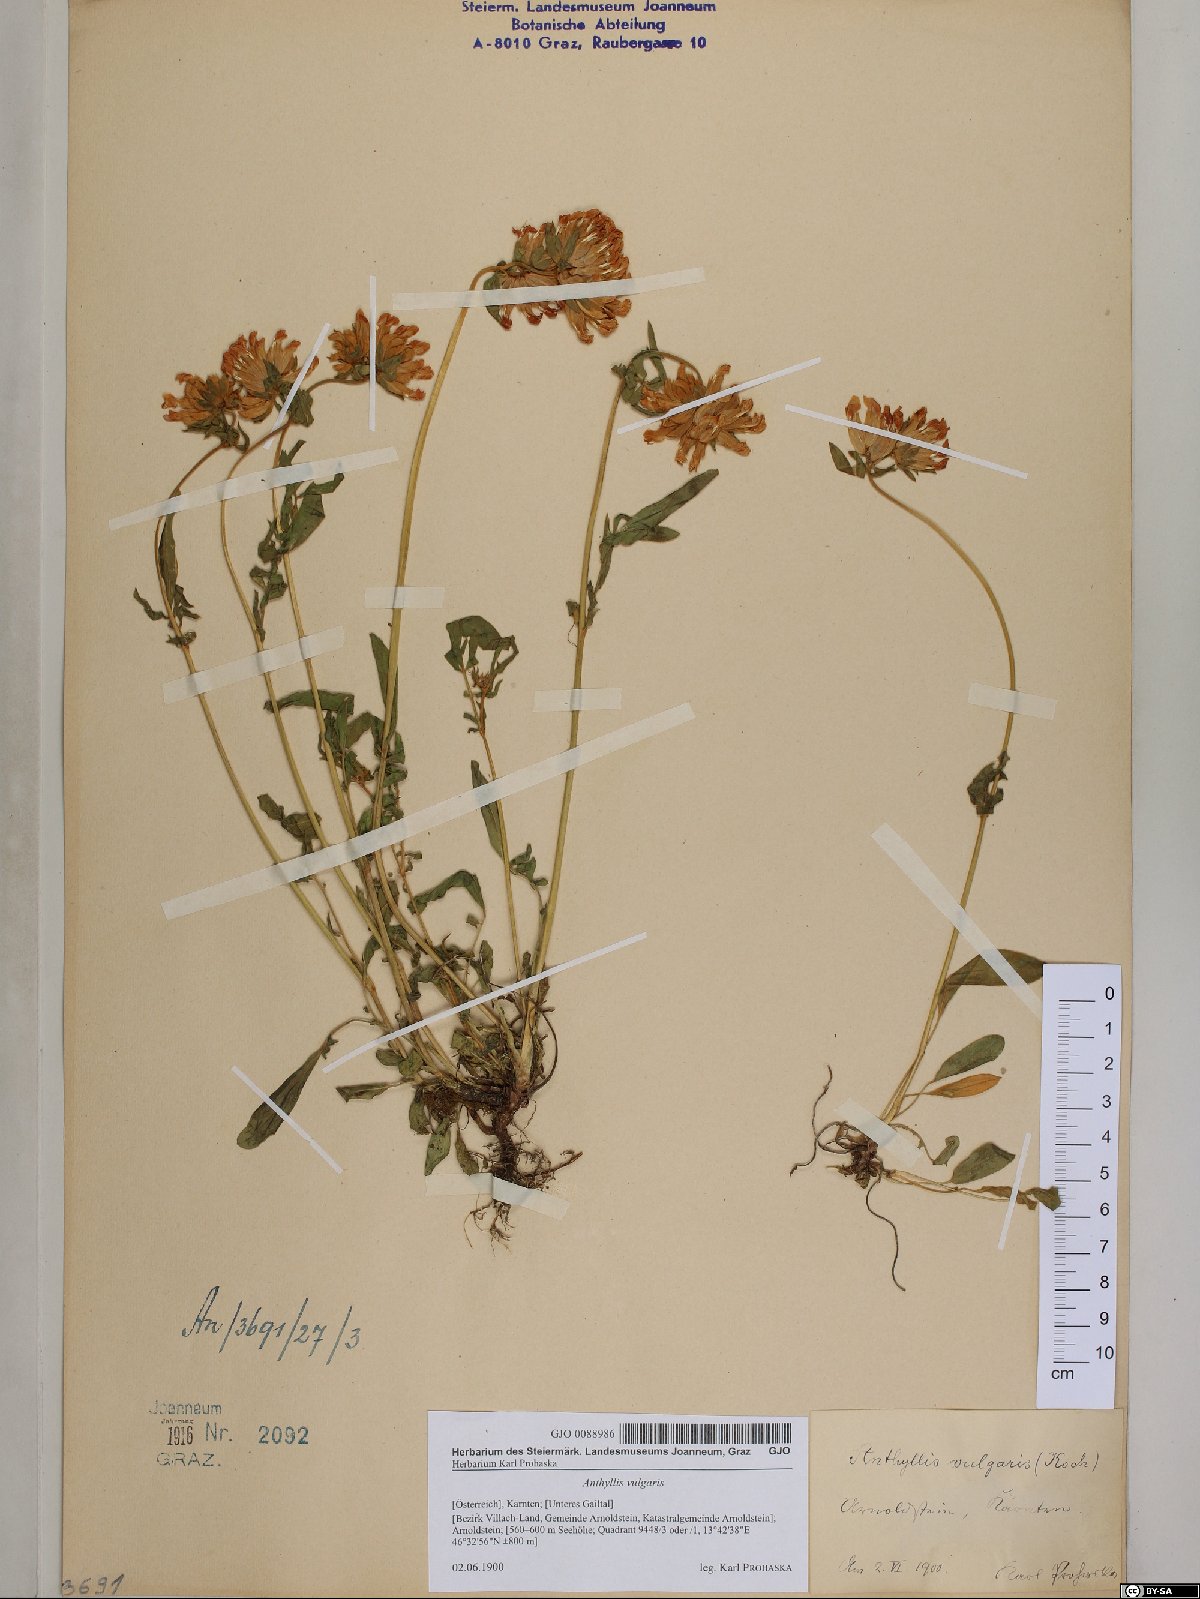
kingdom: Plantae
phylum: Tracheophyta
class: Magnoliopsida
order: Fabales
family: Fabaceae
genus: Anthyllis
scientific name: Anthyllis vulneraria
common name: Kidney vetch
